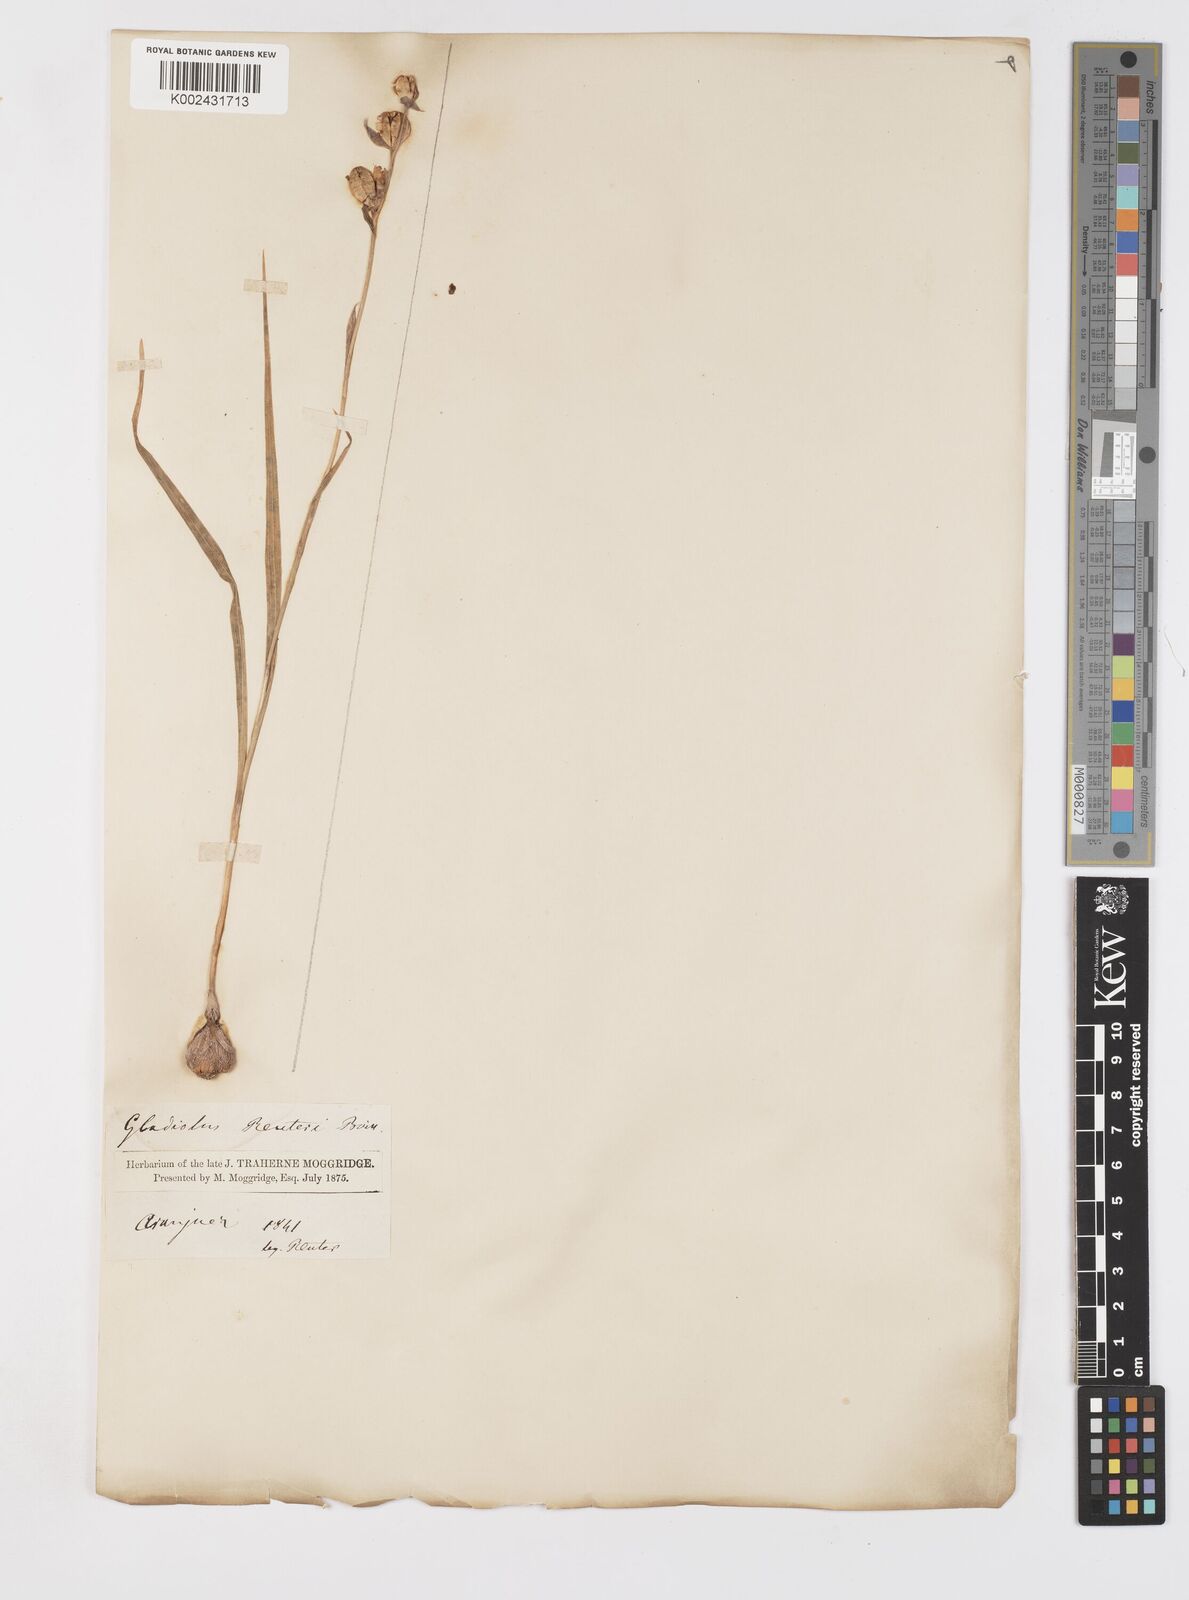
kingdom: Plantae
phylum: Tracheophyta
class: Liliopsida
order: Asparagales
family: Iridaceae
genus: Gladiolus
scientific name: Gladiolus illyricus
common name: Wild gladiolus
